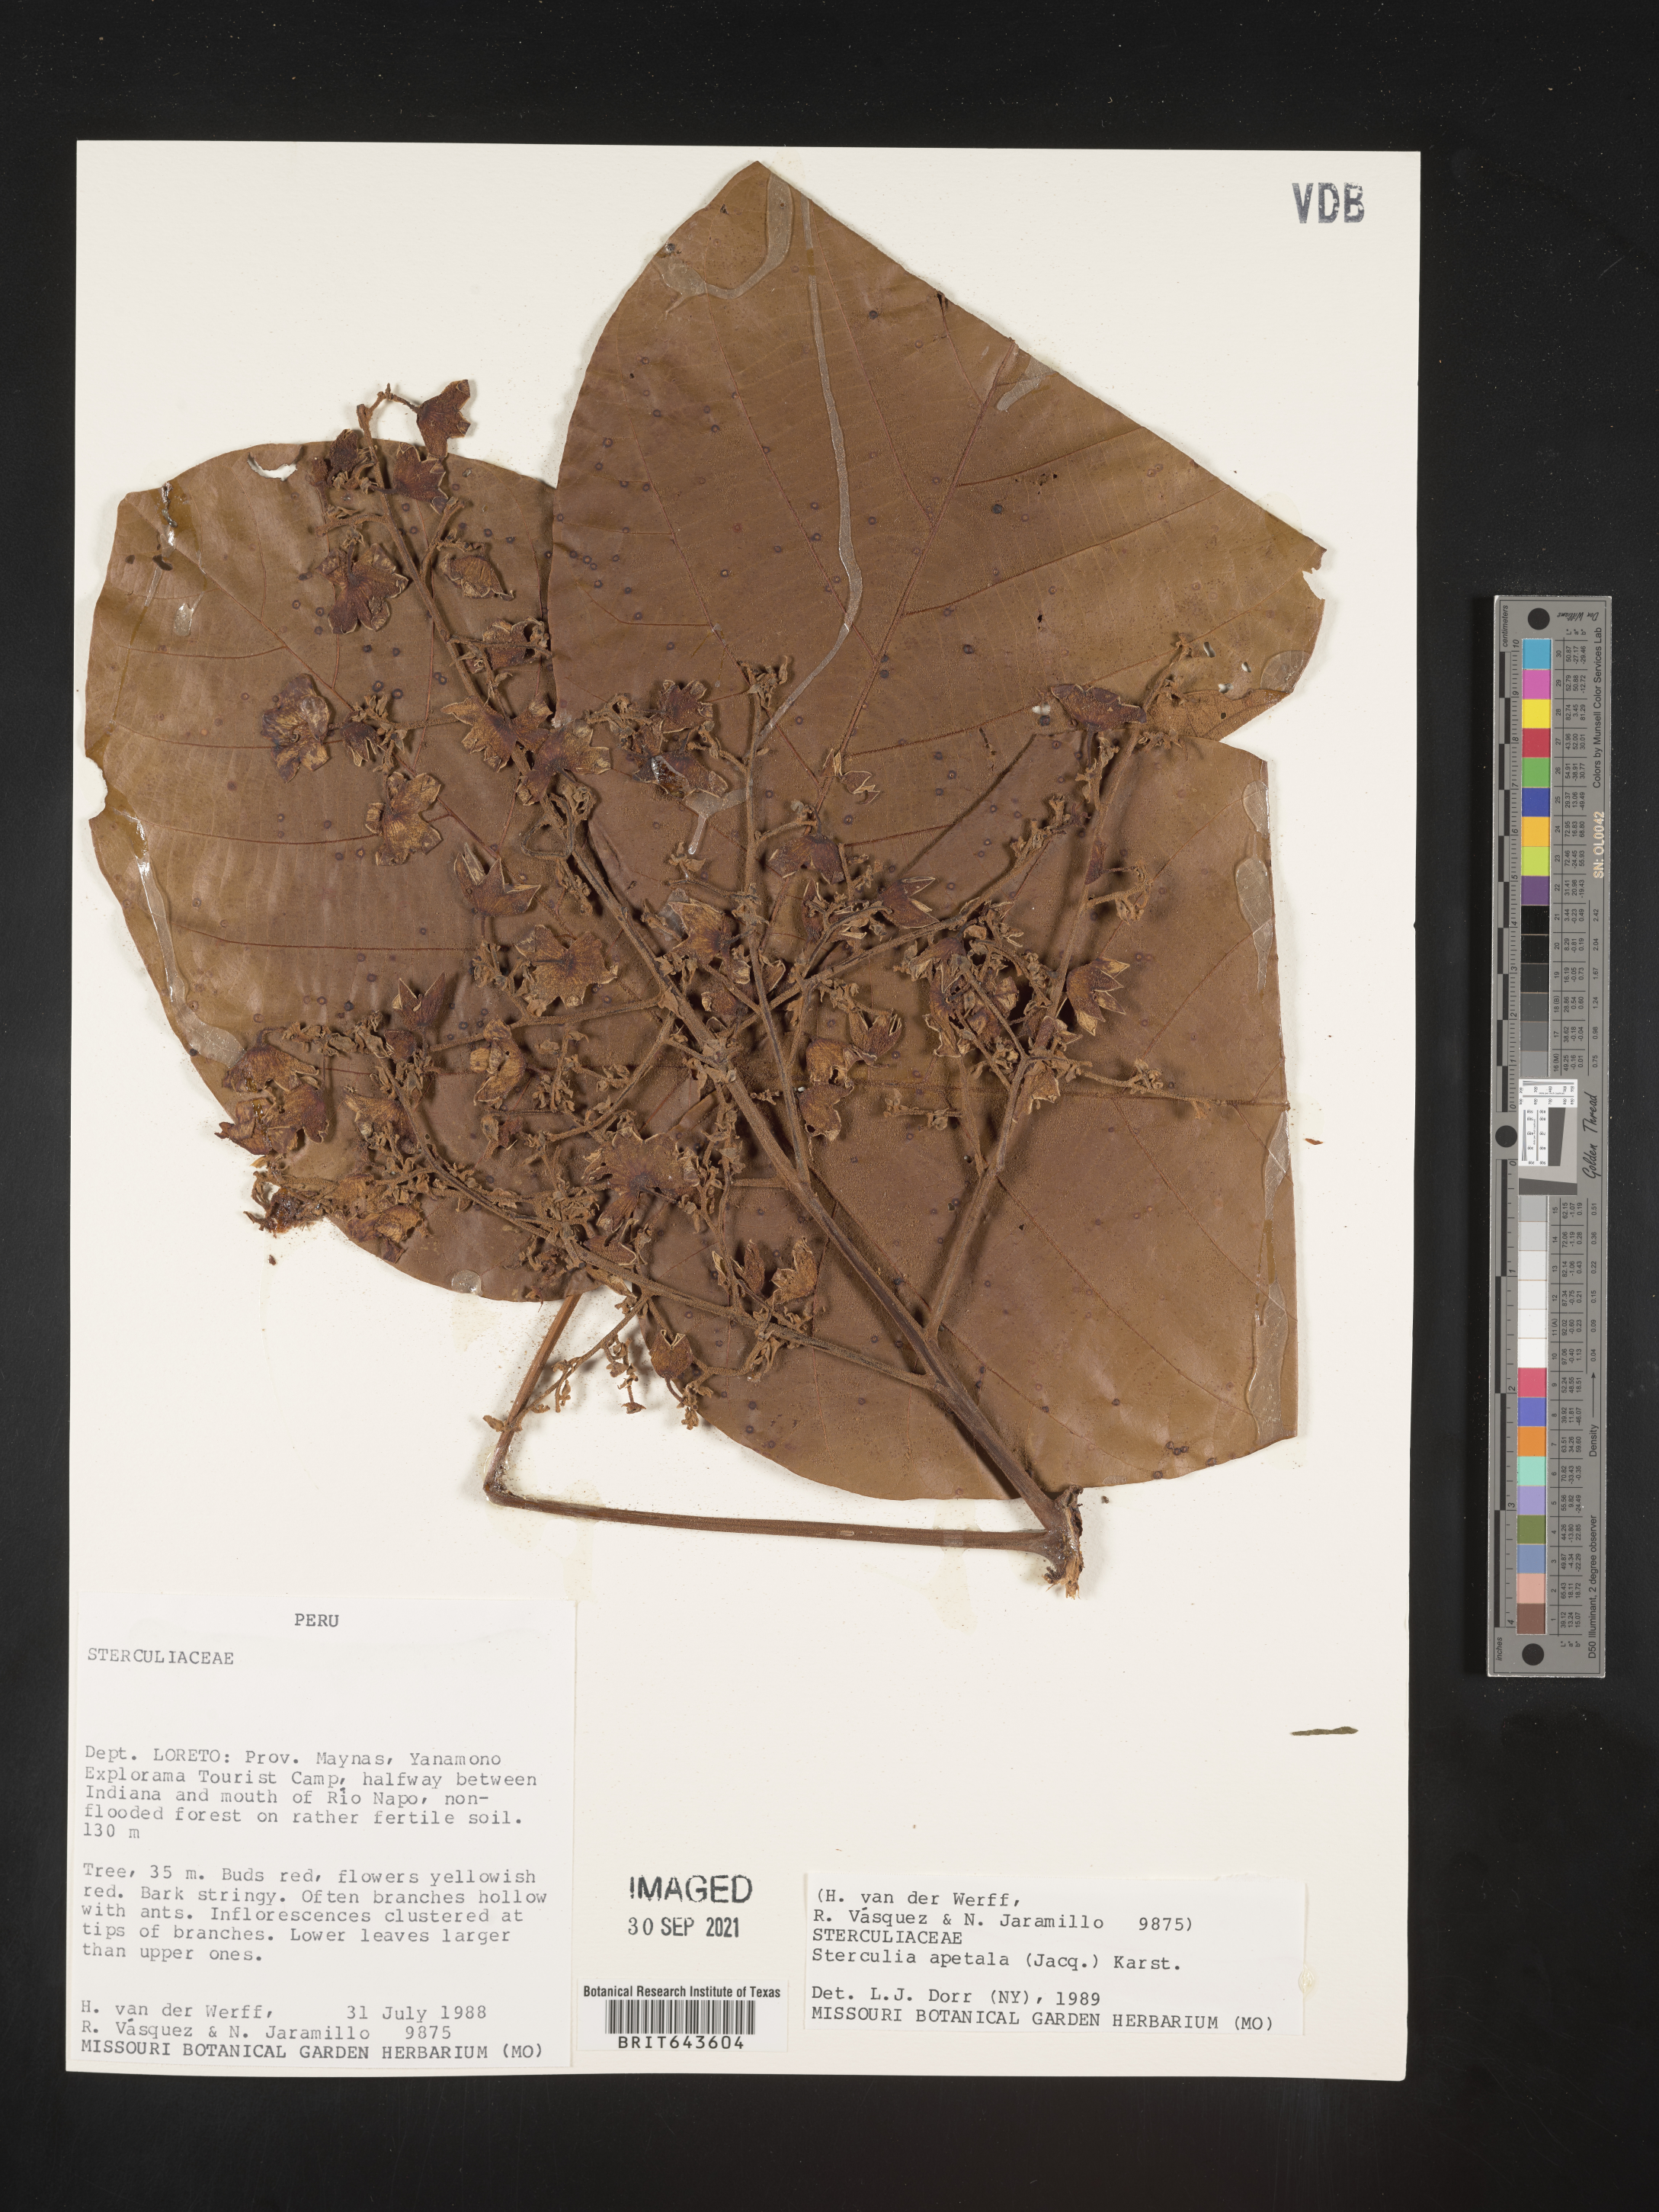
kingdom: Plantae
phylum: Tracheophyta
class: Magnoliopsida
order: Malvales
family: Malvaceae
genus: Sterculia
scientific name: Sterculia
